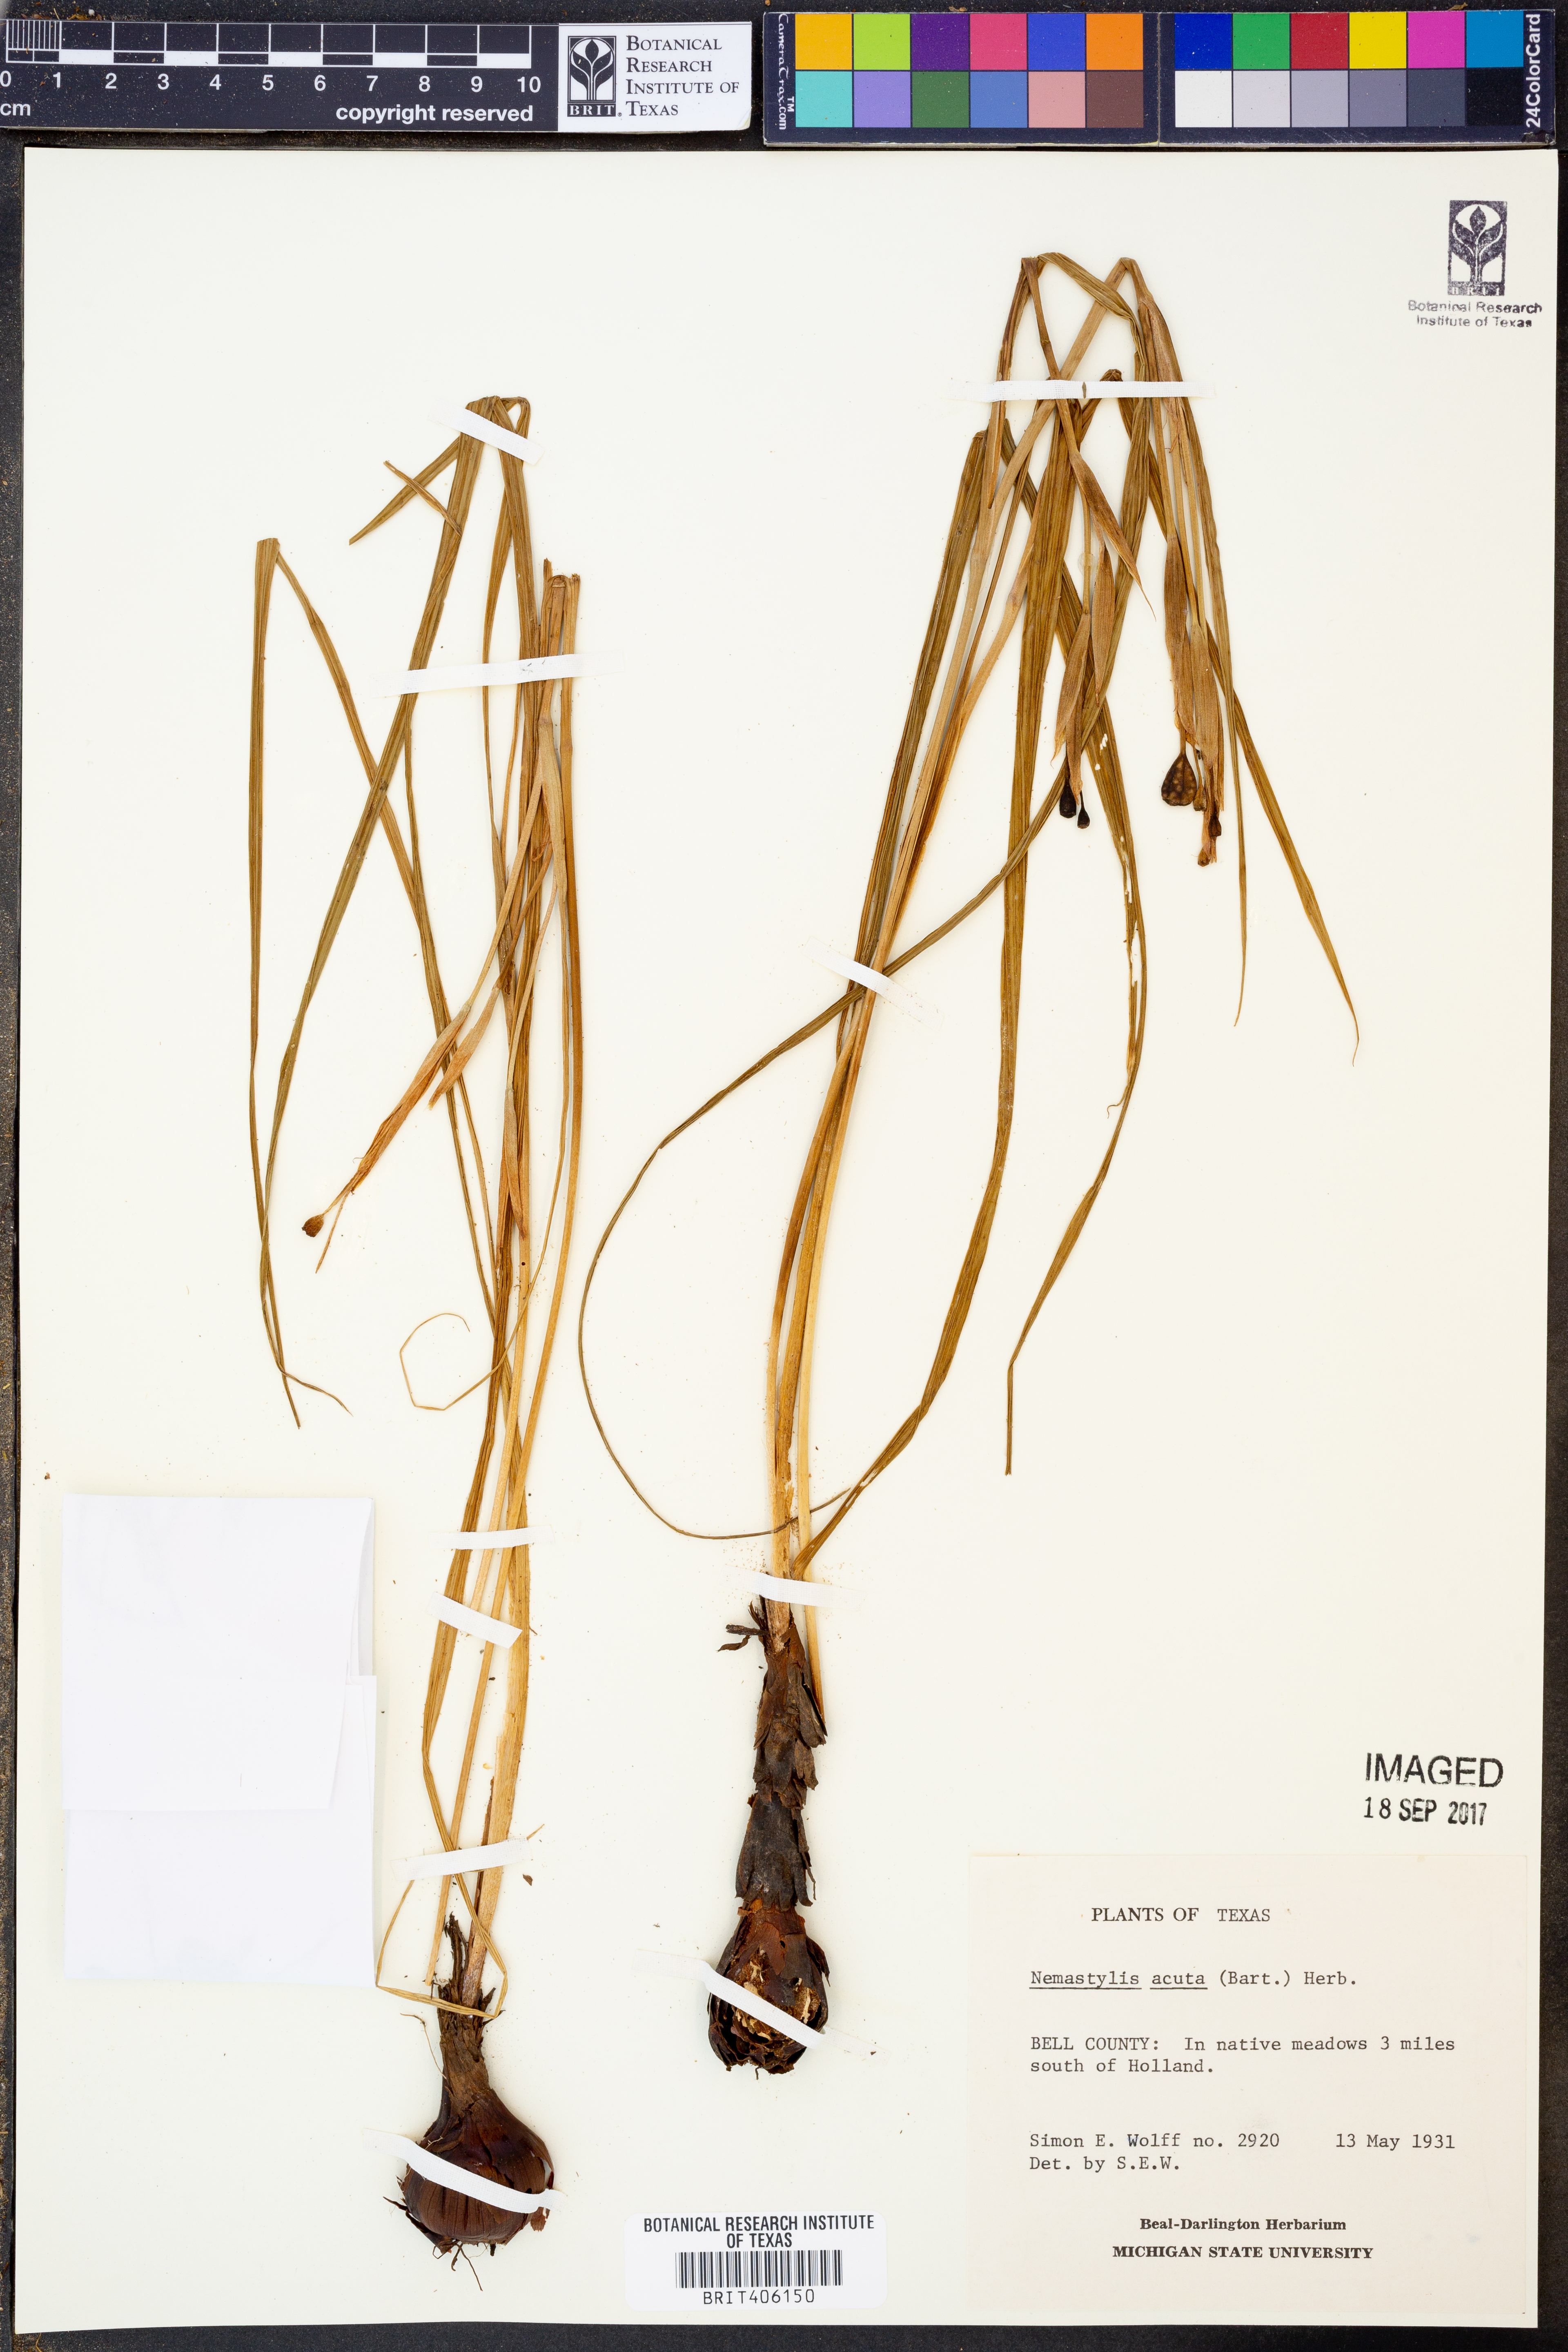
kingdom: Plantae
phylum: Tracheophyta
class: Liliopsida
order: Asparagales
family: Iridaceae
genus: Nemastylis
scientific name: Nemastylis geminiflora
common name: Prairie celestial
